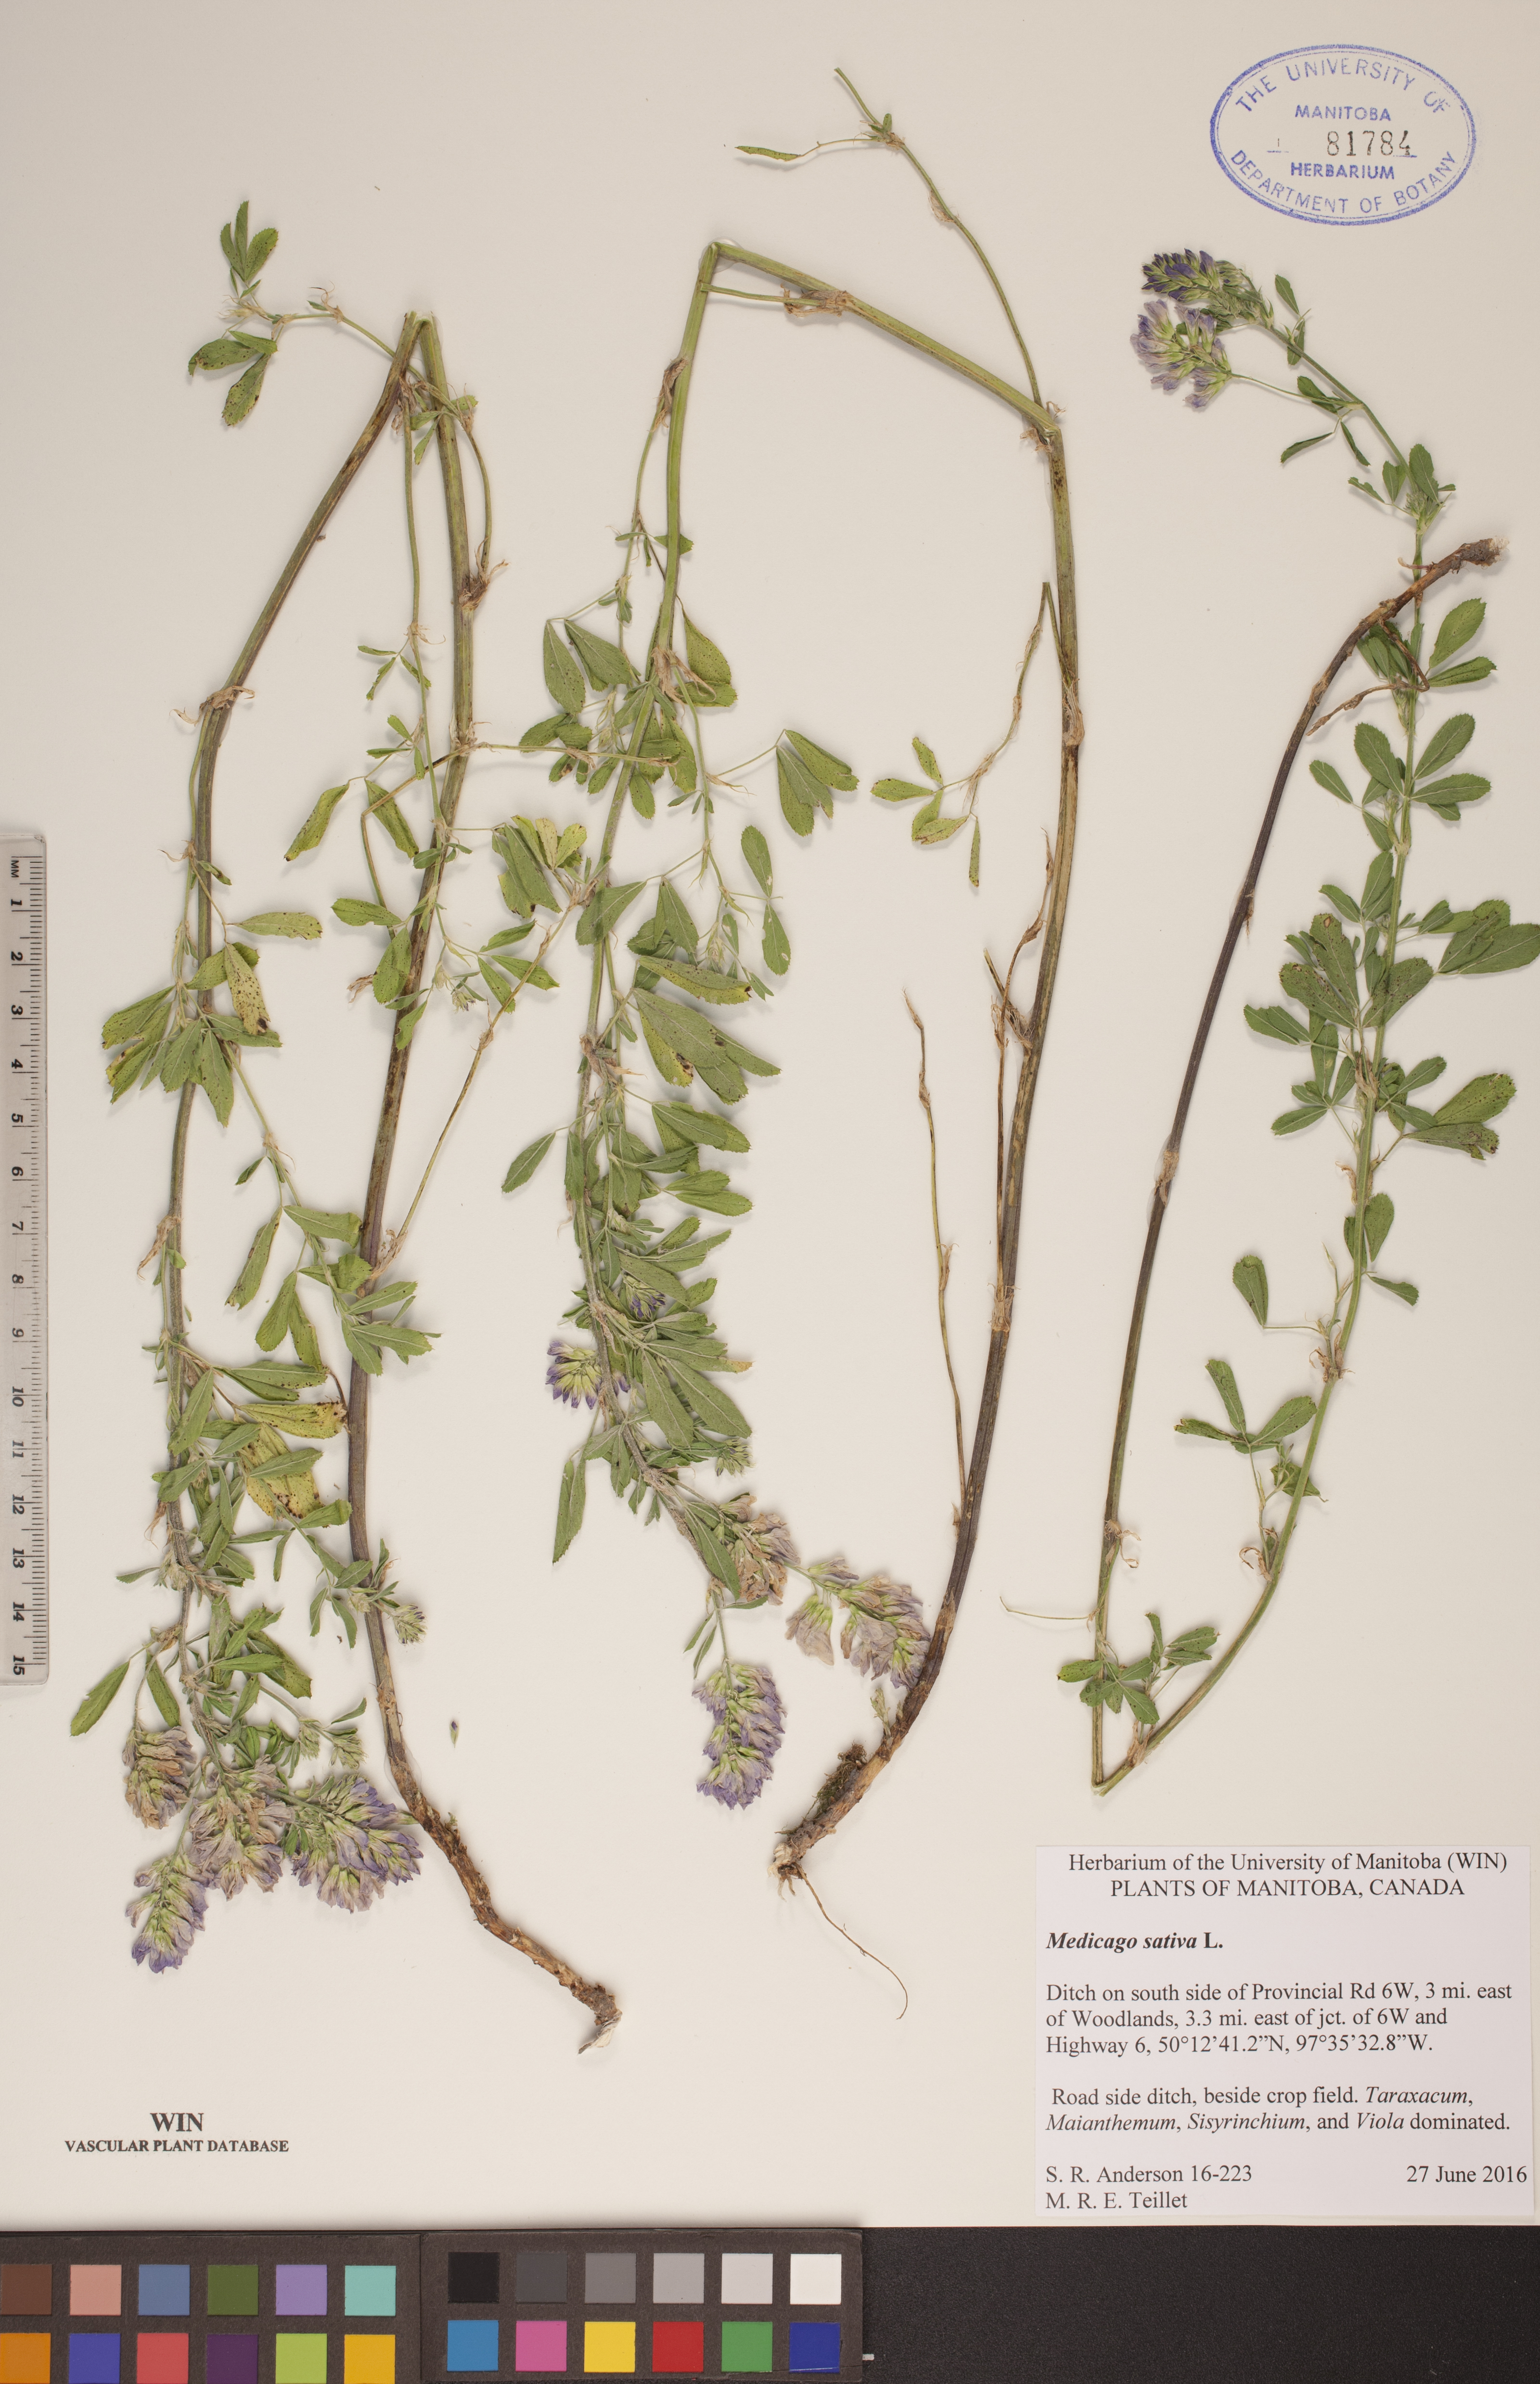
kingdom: Plantae
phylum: Tracheophyta
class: Magnoliopsida
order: Fabales
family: Fabaceae
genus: Medicago
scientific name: Medicago sativa
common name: Alfalfa
